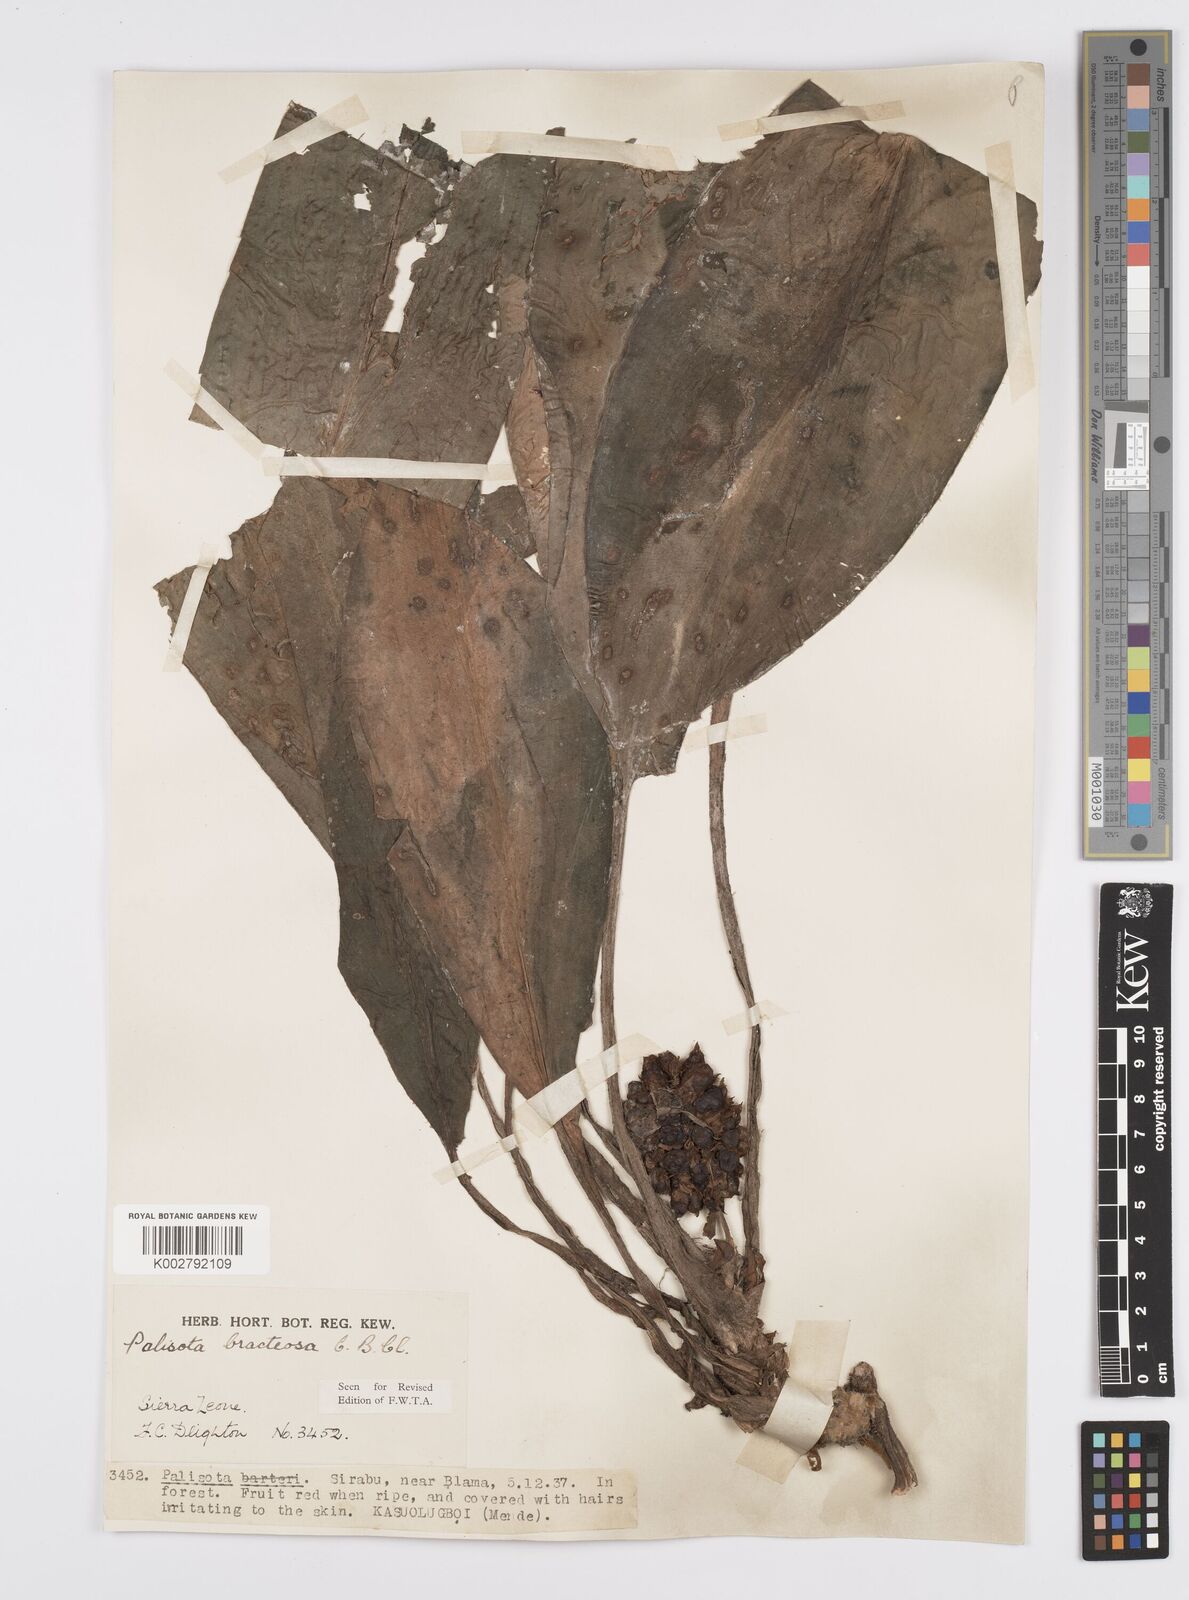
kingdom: Plantae
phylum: Tracheophyta
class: Liliopsida
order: Commelinales
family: Commelinaceae
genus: Palisota
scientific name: Palisota bracteosa
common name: Palisota
